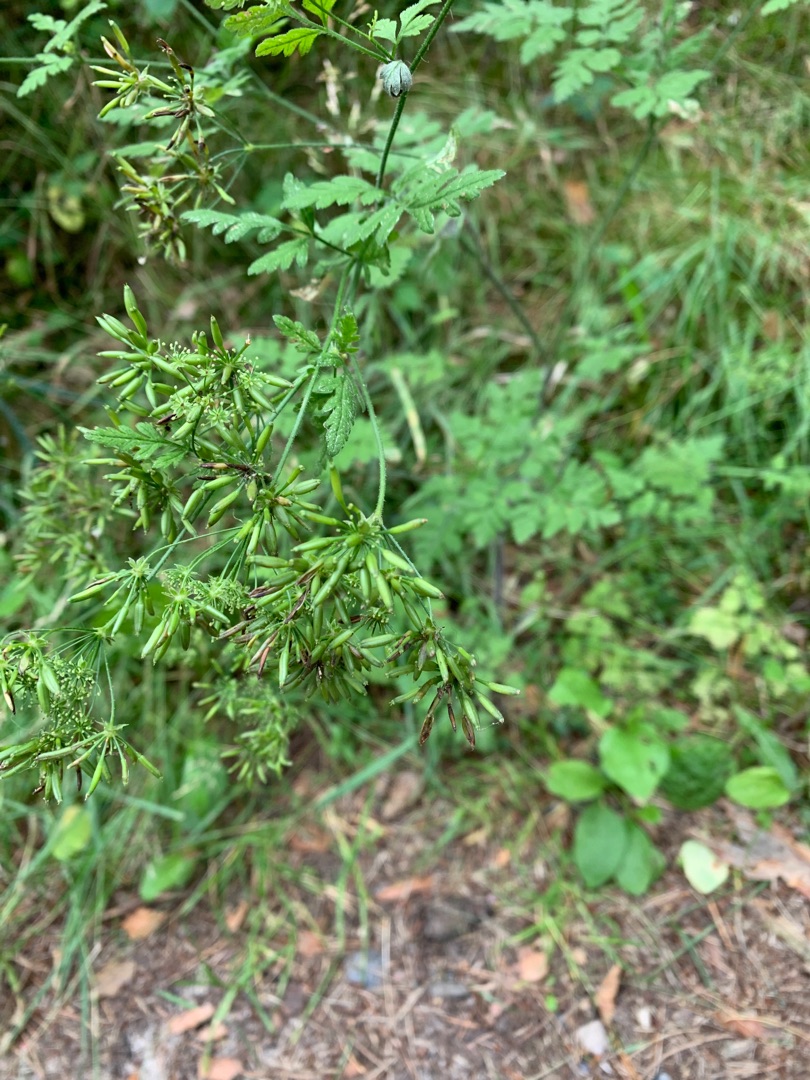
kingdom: Plantae
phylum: Tracheophyta
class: Magnoliopsida
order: Apiales
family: Apiaceae
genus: Chaerophyllum
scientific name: Chaerophyllum temulum
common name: Almindelig hulsvøb
